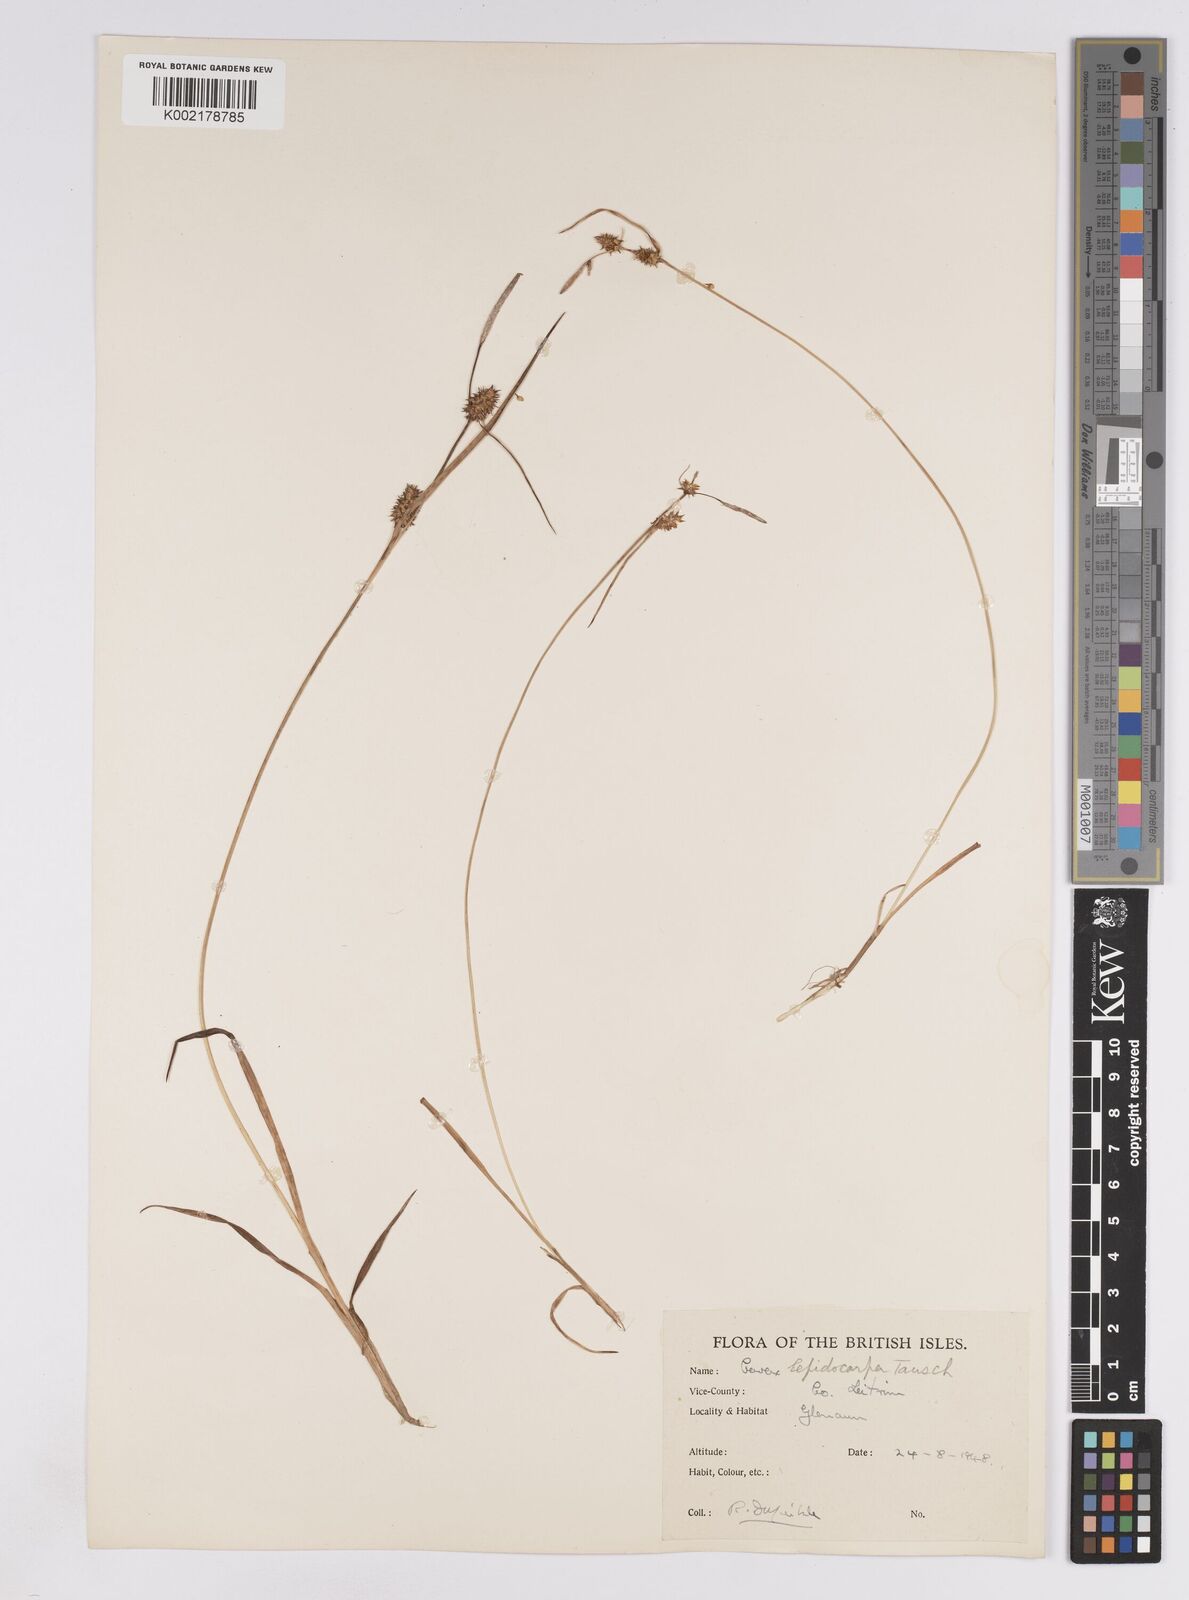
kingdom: Plantae
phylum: Tracheophyta
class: Liliopsida
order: Poales
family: Cyperaceae
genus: Carex
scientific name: Carex lepidocarpa
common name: Long-stalked yellow-sedge
